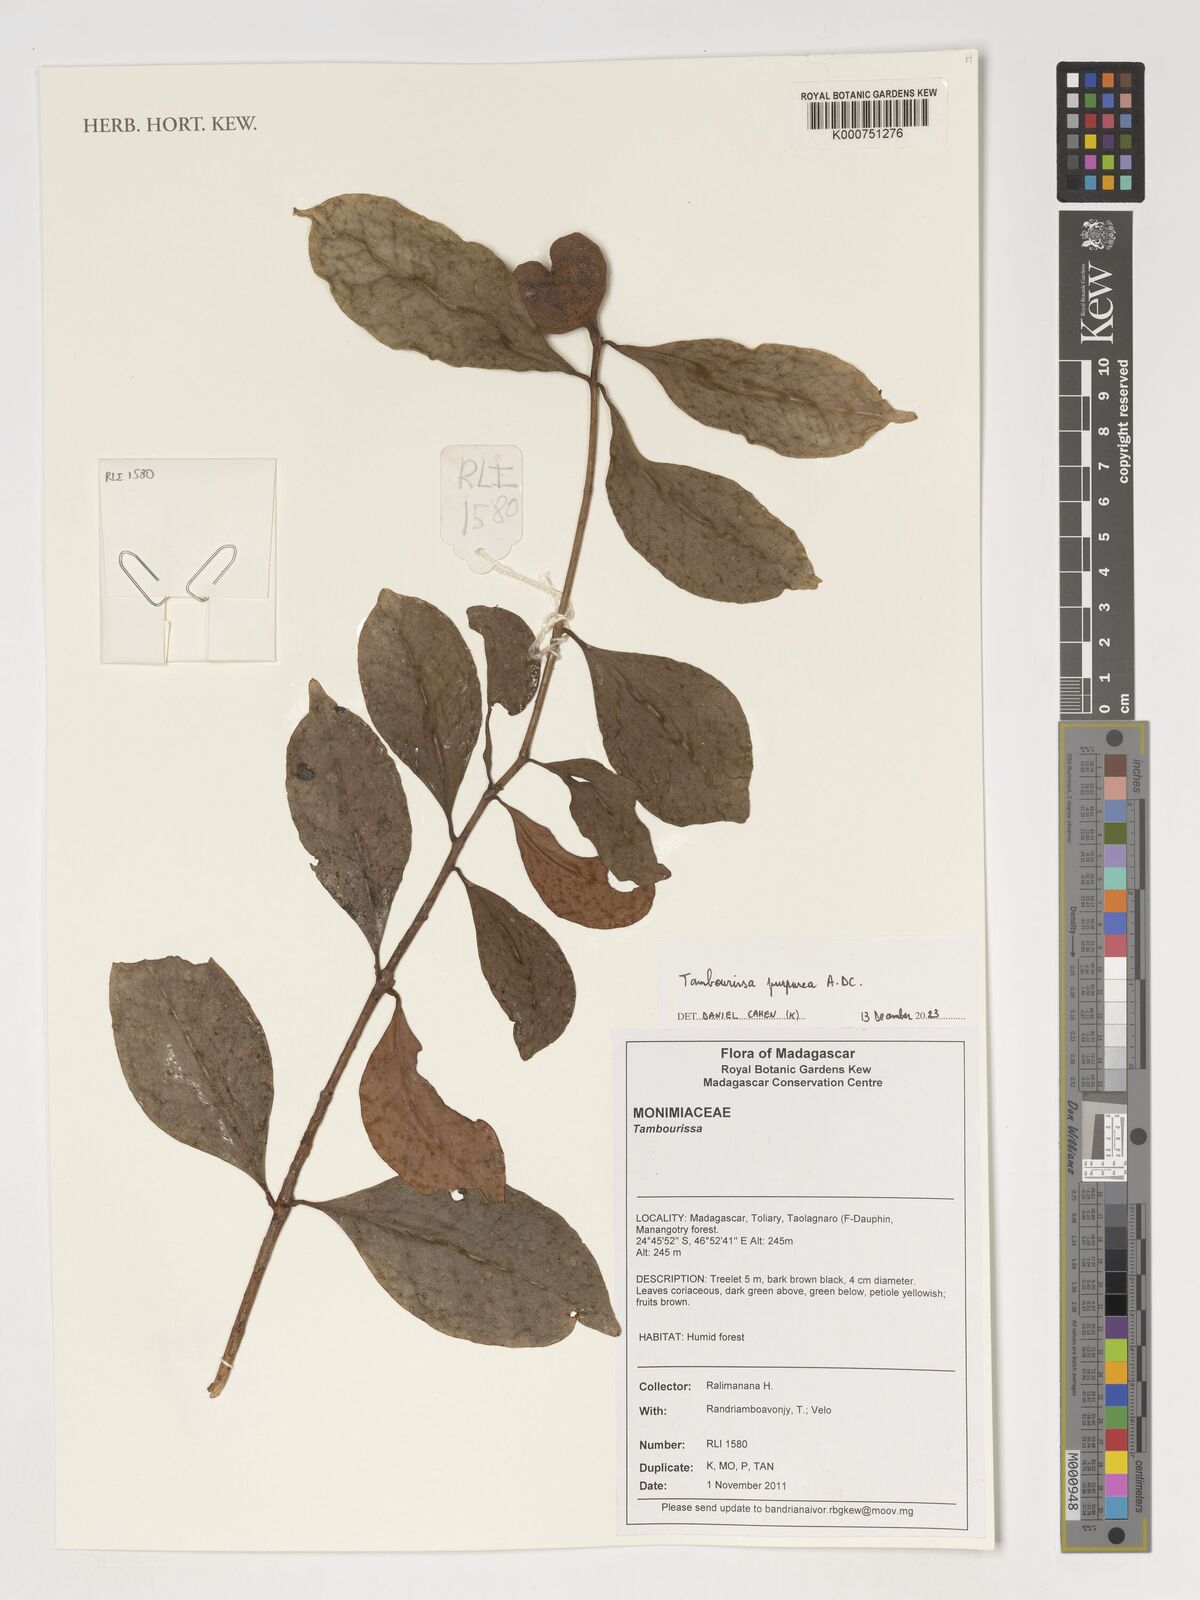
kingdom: Plantae
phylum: Tracheophyta
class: Magnoliopsida
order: Laurales
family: Monimiaceae
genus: Tambourissa
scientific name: Tambourissa purpurea
